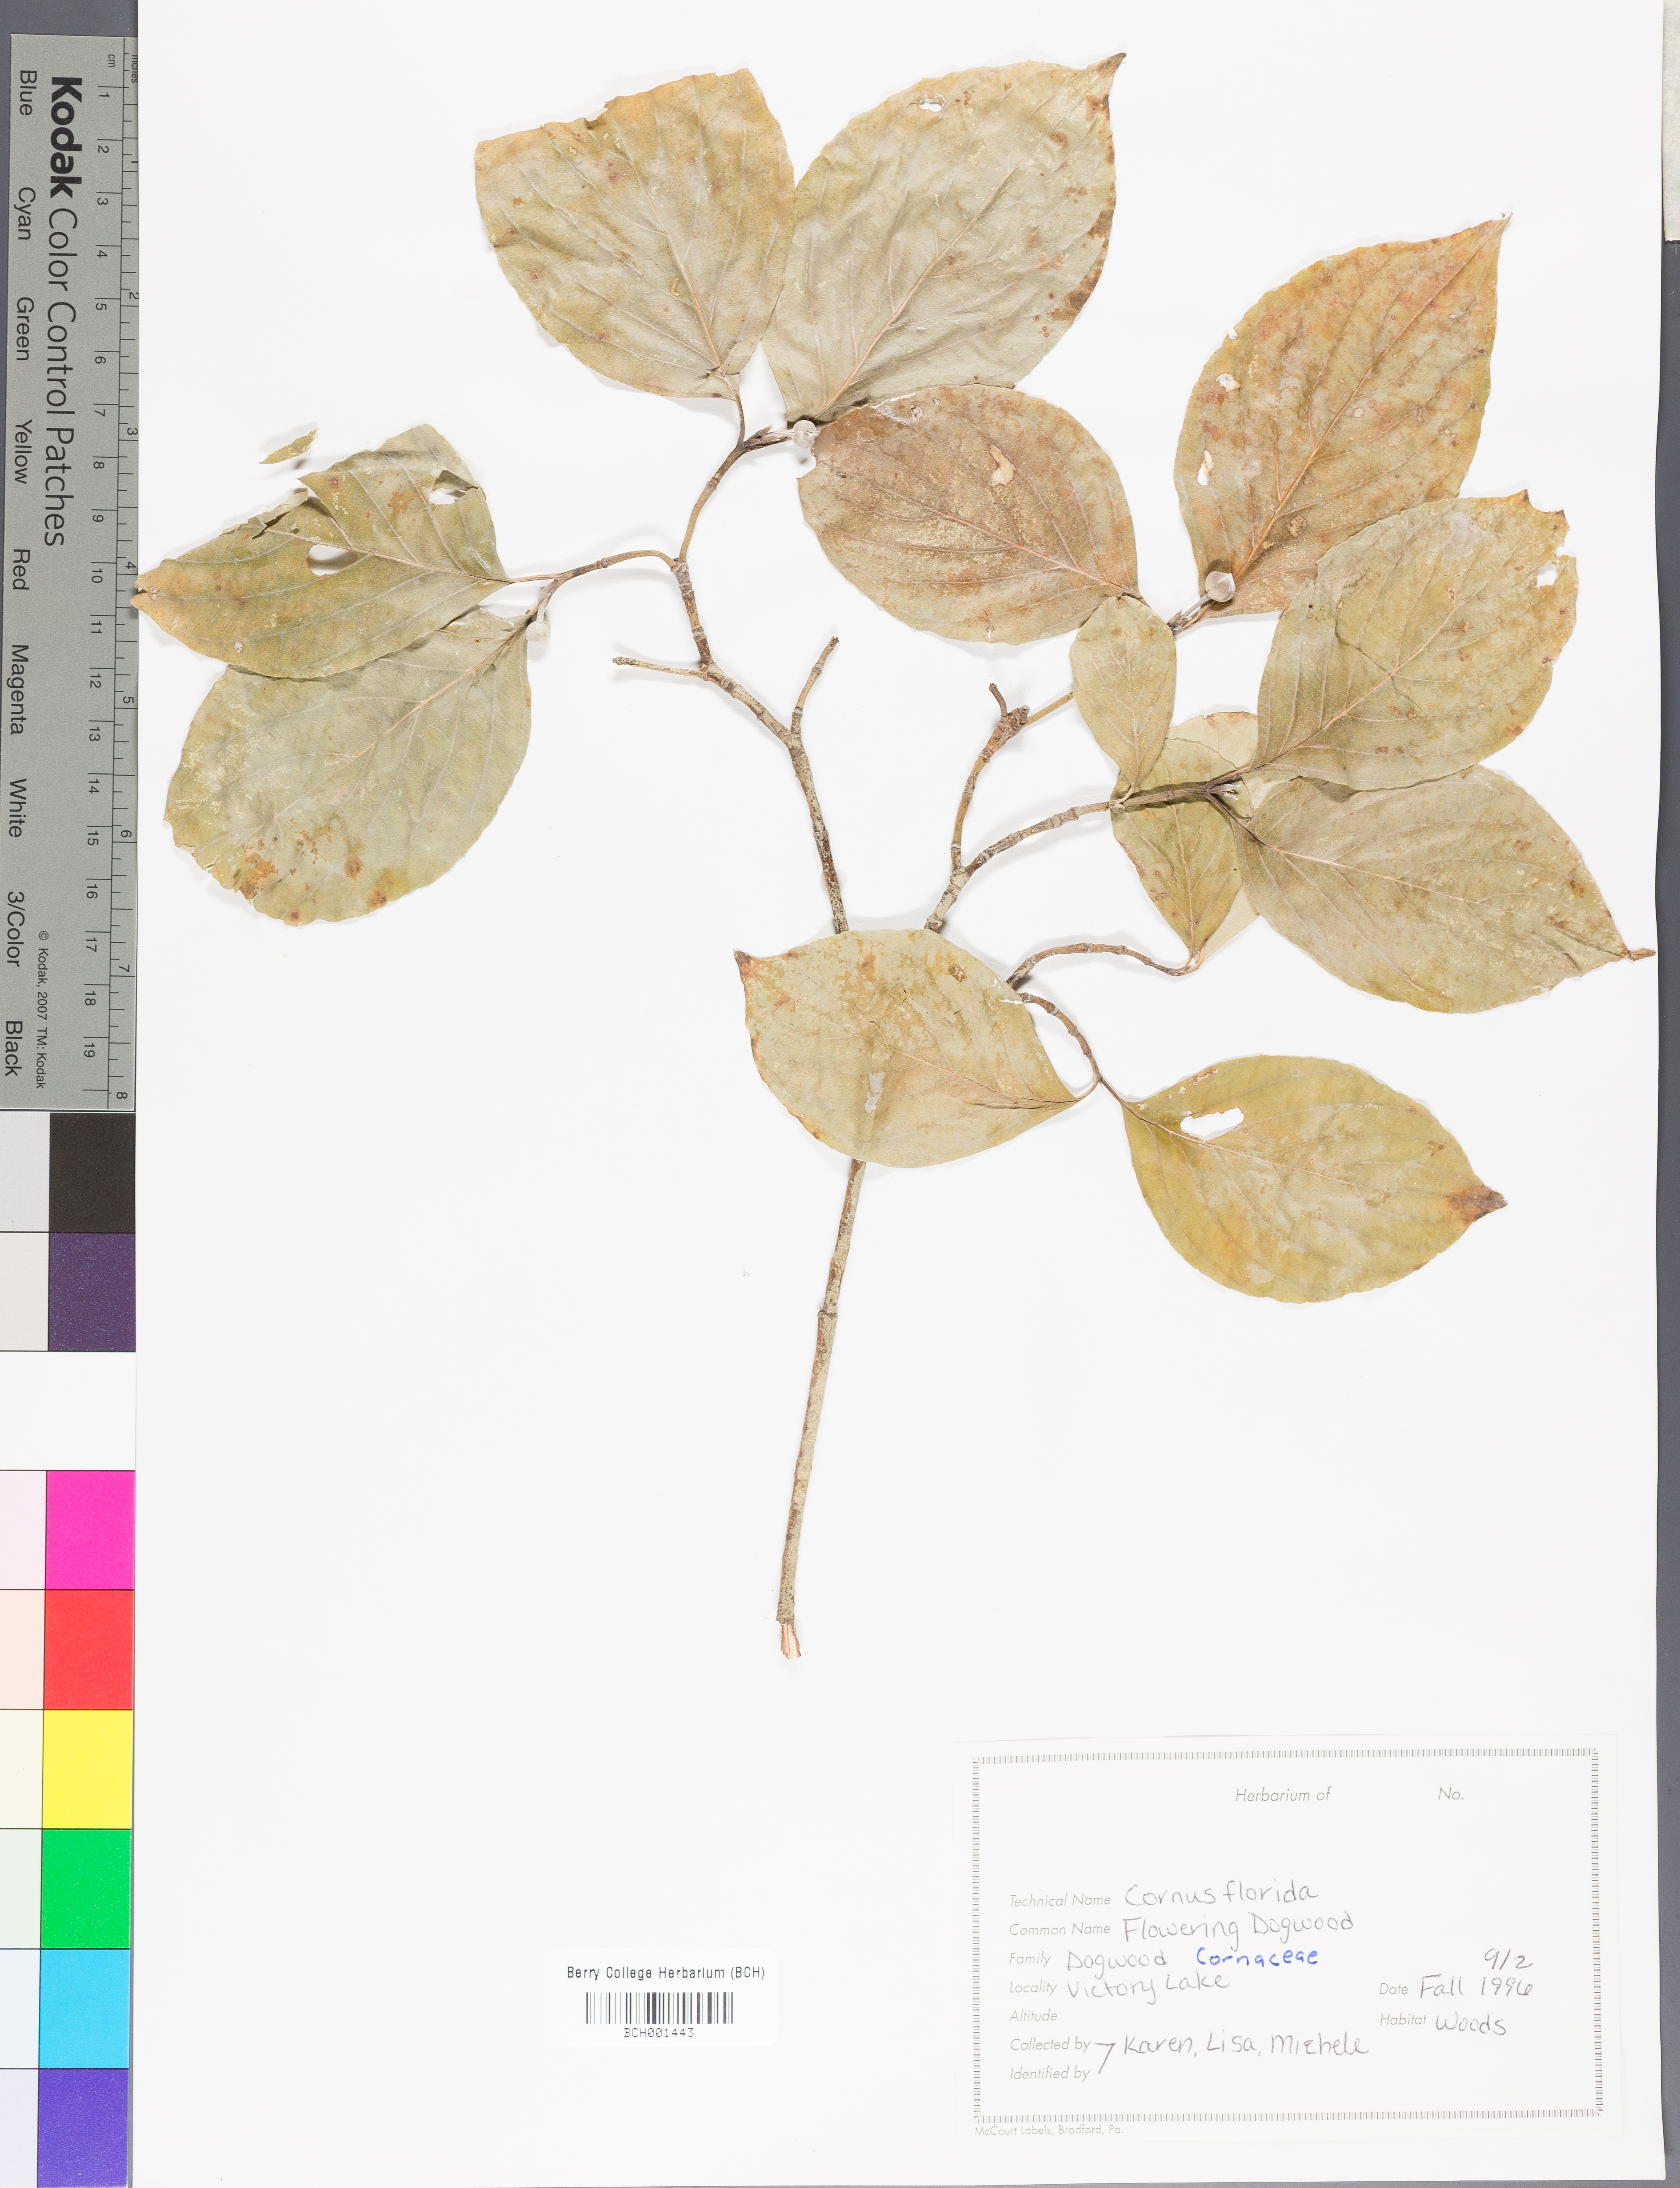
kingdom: Plantae
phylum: Tracheophyta
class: Magnoliopsida
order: Cornales
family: Cornaceae
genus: Cornus
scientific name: Cornus florida
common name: Flowering dogwood
